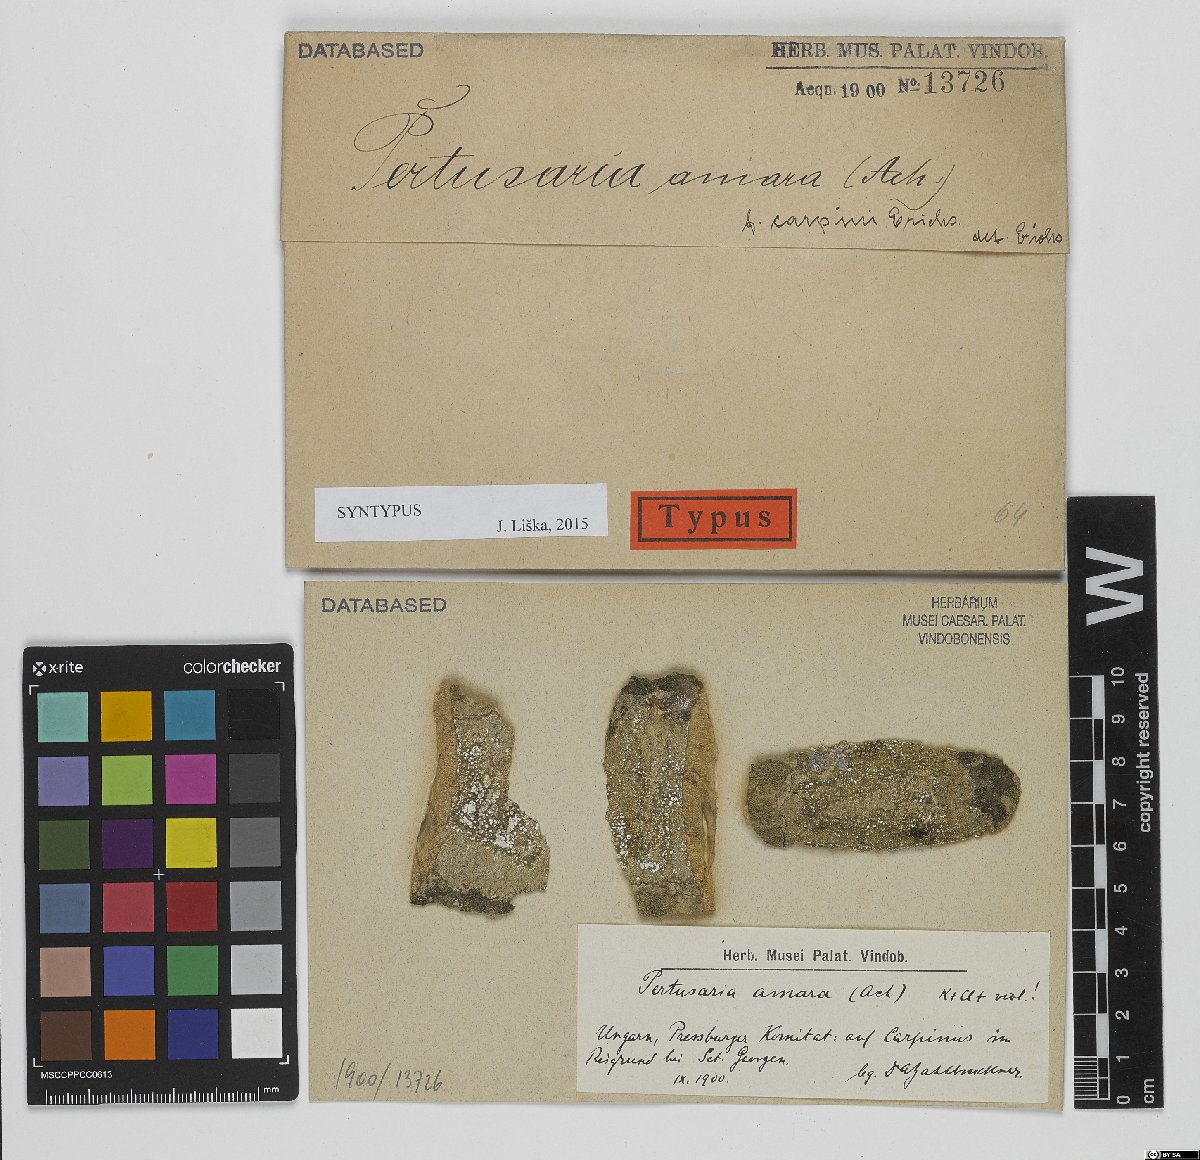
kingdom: Fungi
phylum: Ascomycota
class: Lecanoromycetes
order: Pertusariales
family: Pertusariaceae
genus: Lepra
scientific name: Lepra amara
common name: Bitter wart lichen
